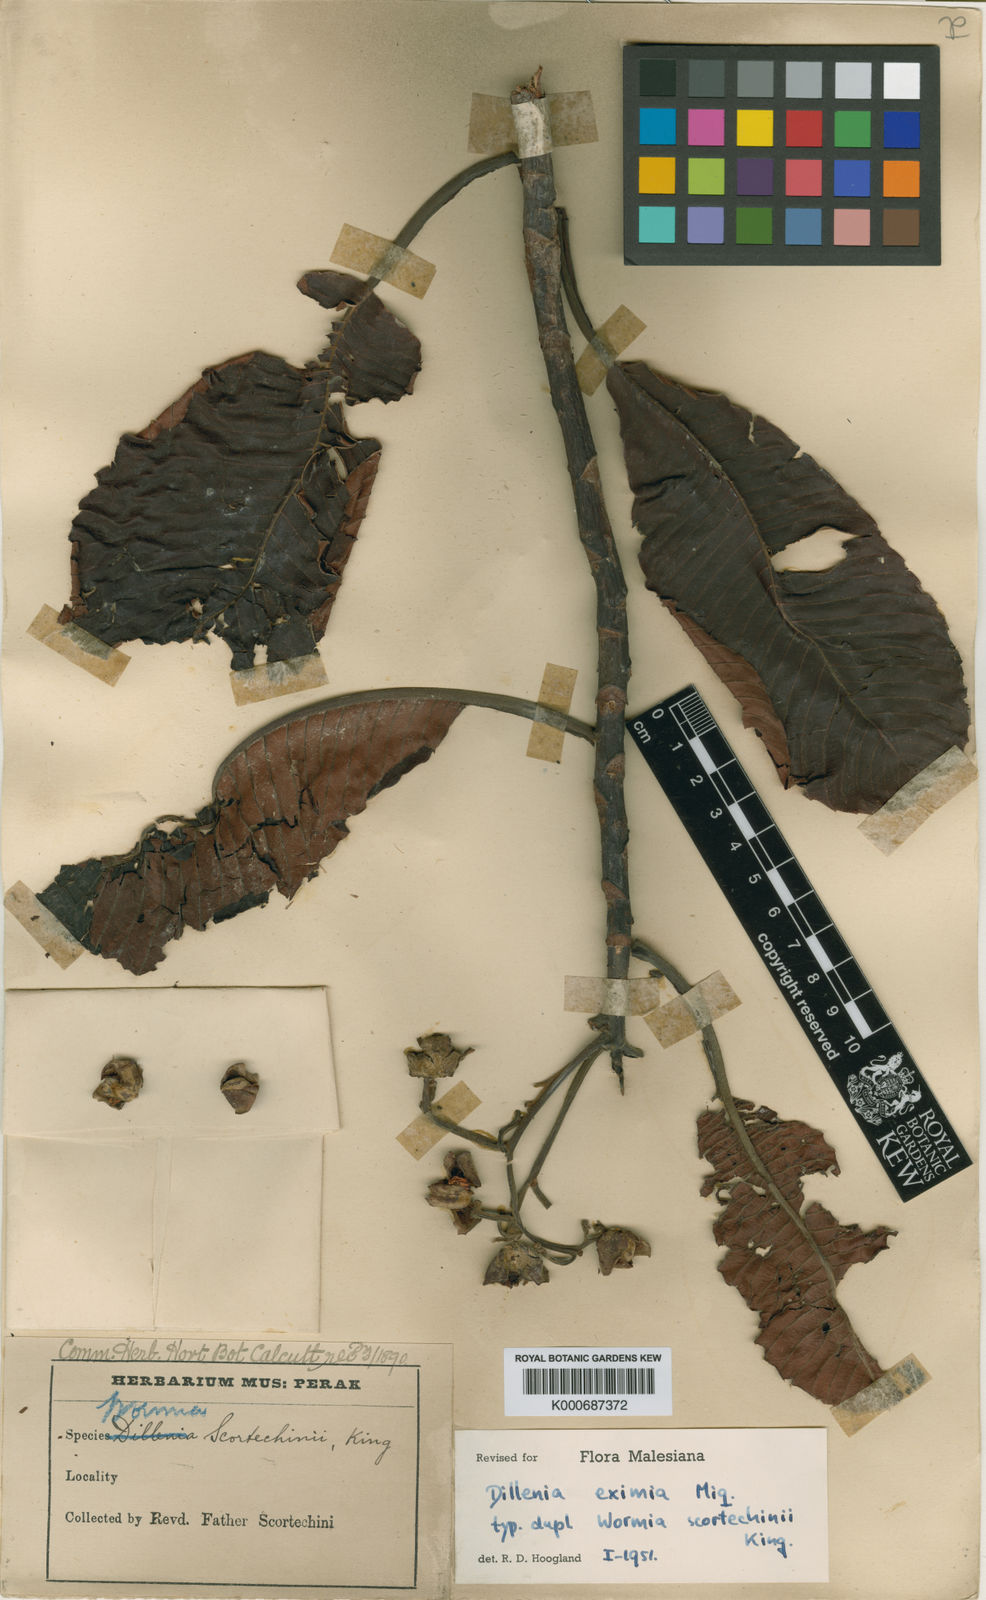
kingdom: Plantae
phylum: Tracheophyta
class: Magnoliopsida
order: Dilleniales
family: Dilleniaceae
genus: Dillenia
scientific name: Dillenia grandifolia
